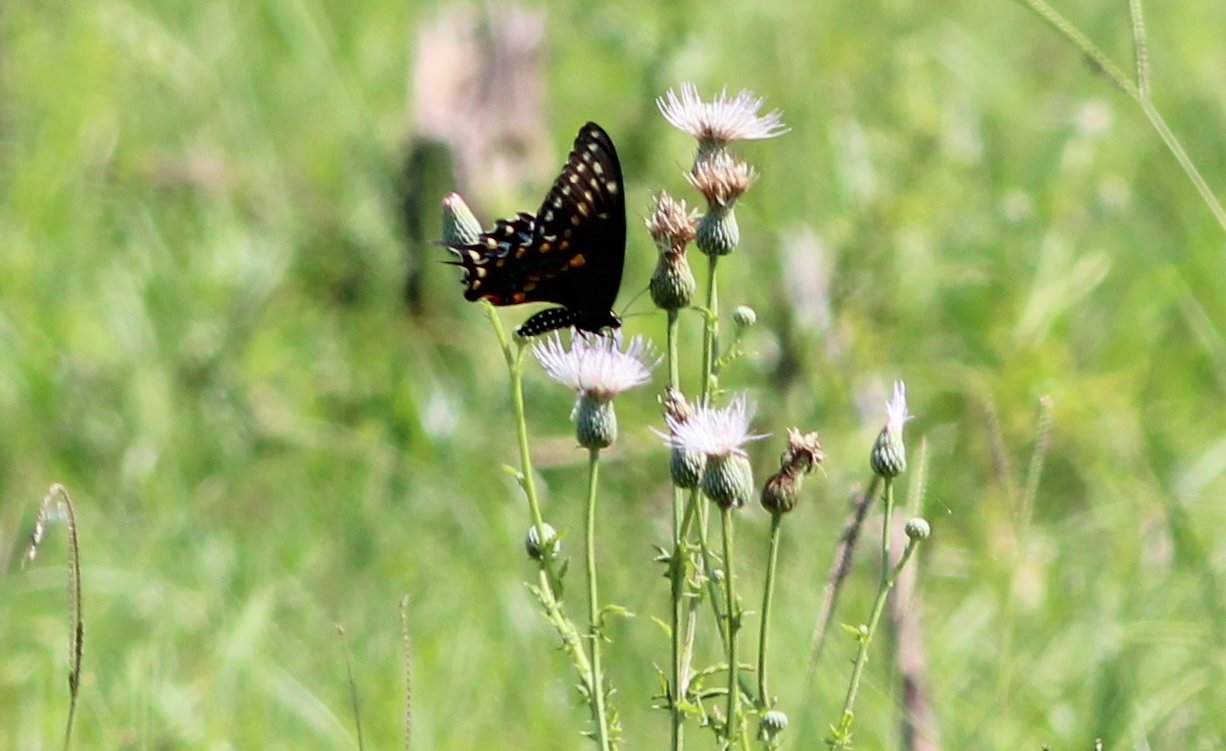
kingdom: Animalia
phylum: Arthropoda
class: Insecta
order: Lepidoptera
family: Papilionidae
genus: Papilio
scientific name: Papilio polyxenes
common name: Black Swallowtail
